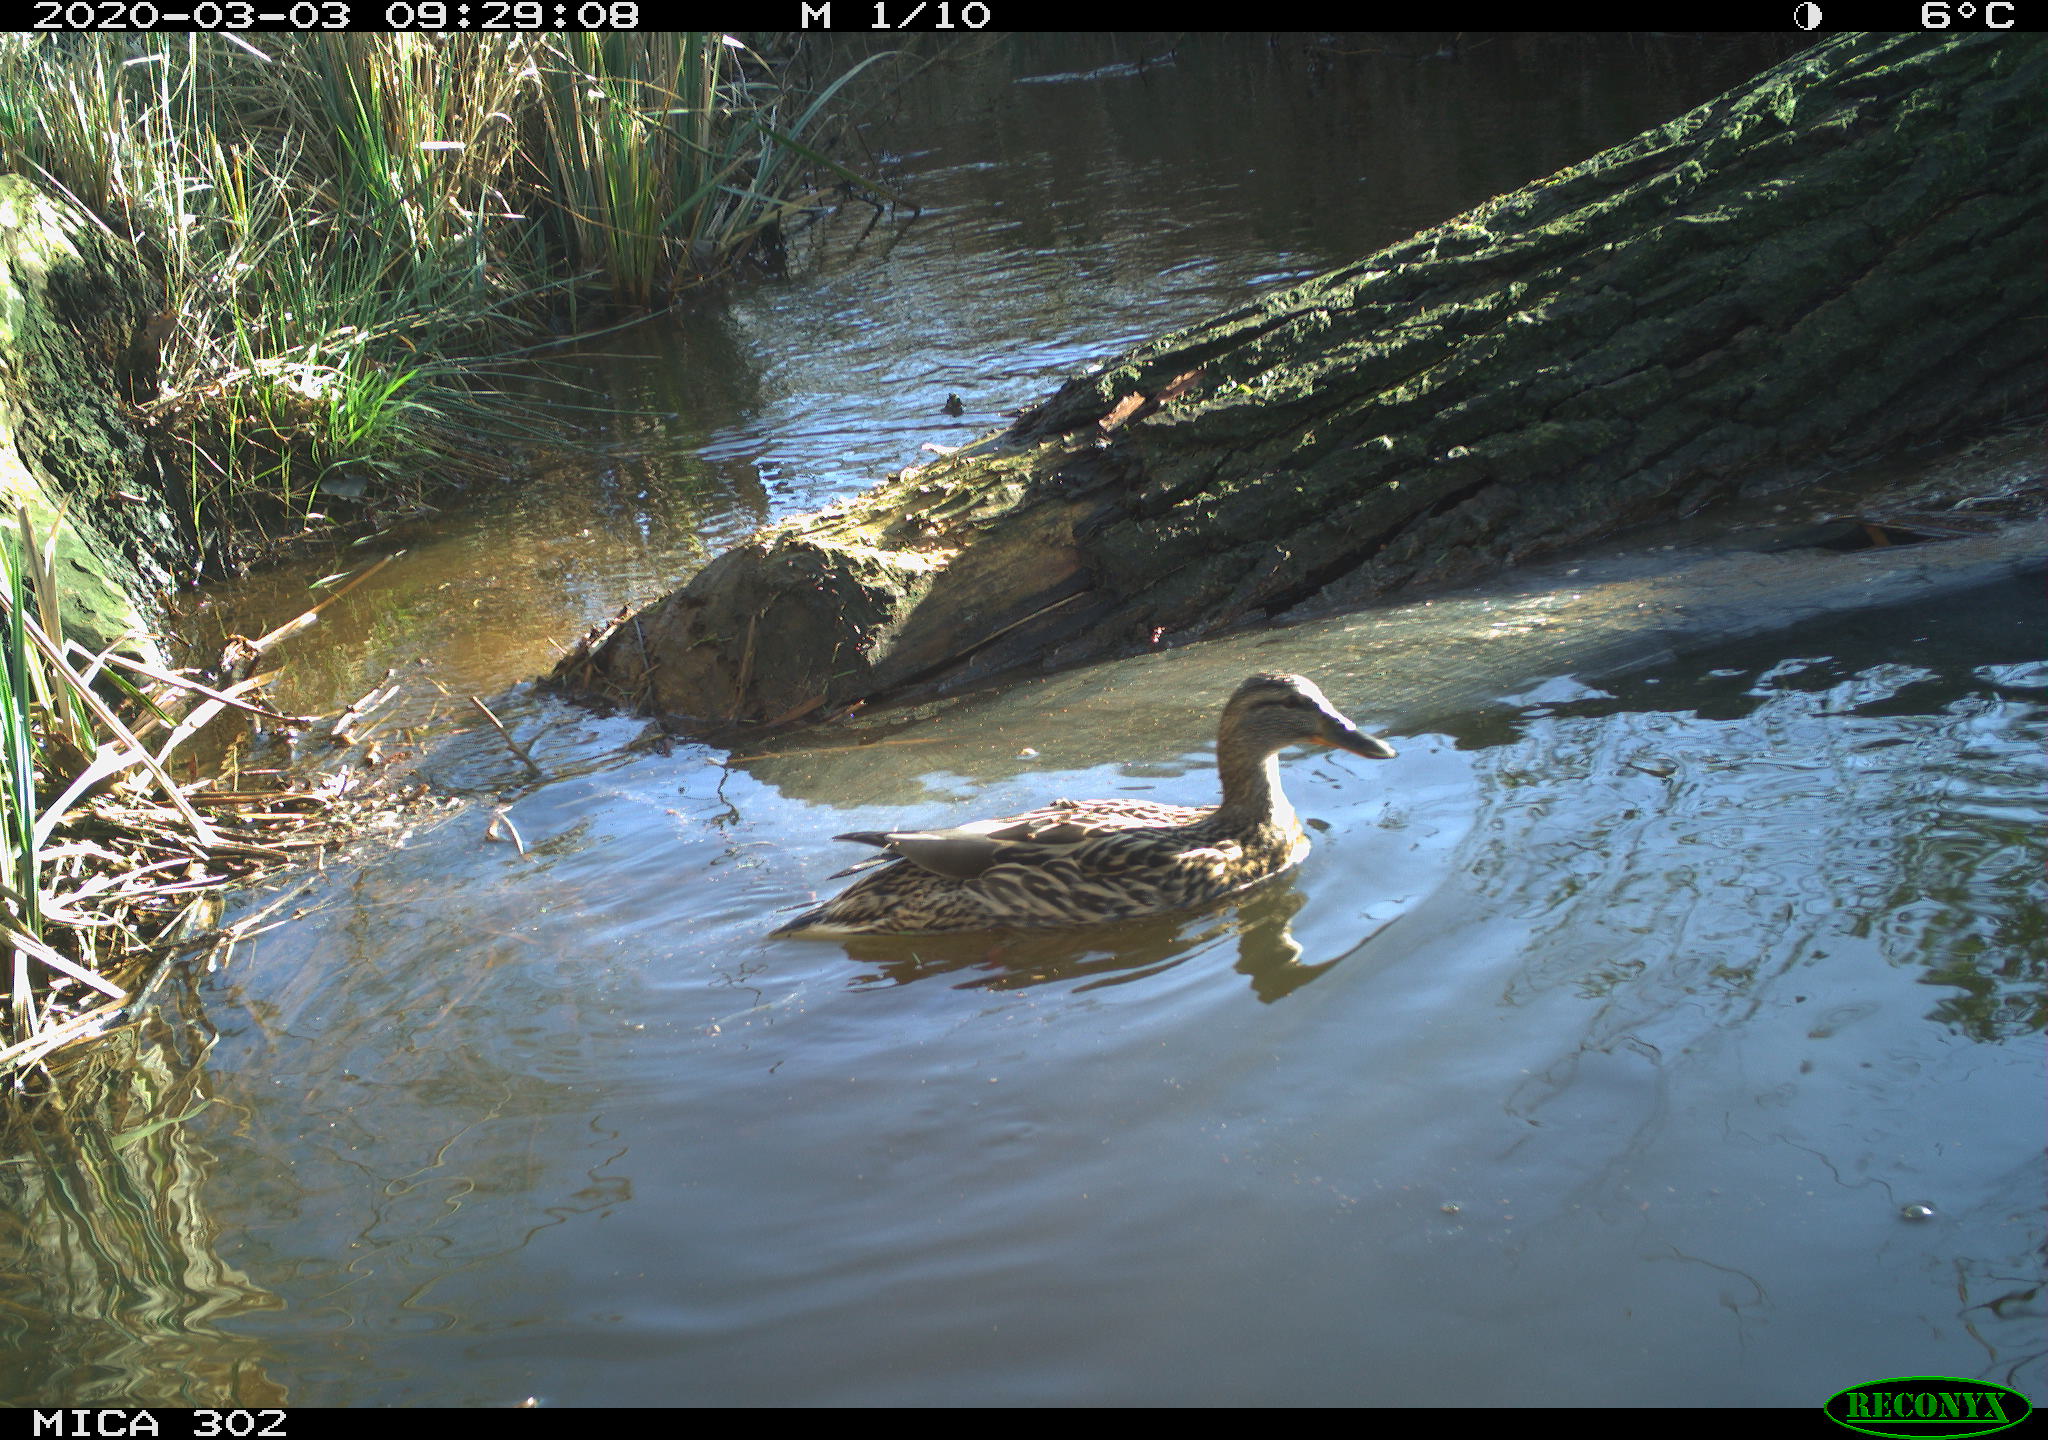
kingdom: Animalia
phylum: Chordata
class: Aves
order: Anseriformes
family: Anatidae
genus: Anas
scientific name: Anas platyrhynchos
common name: Mallard
